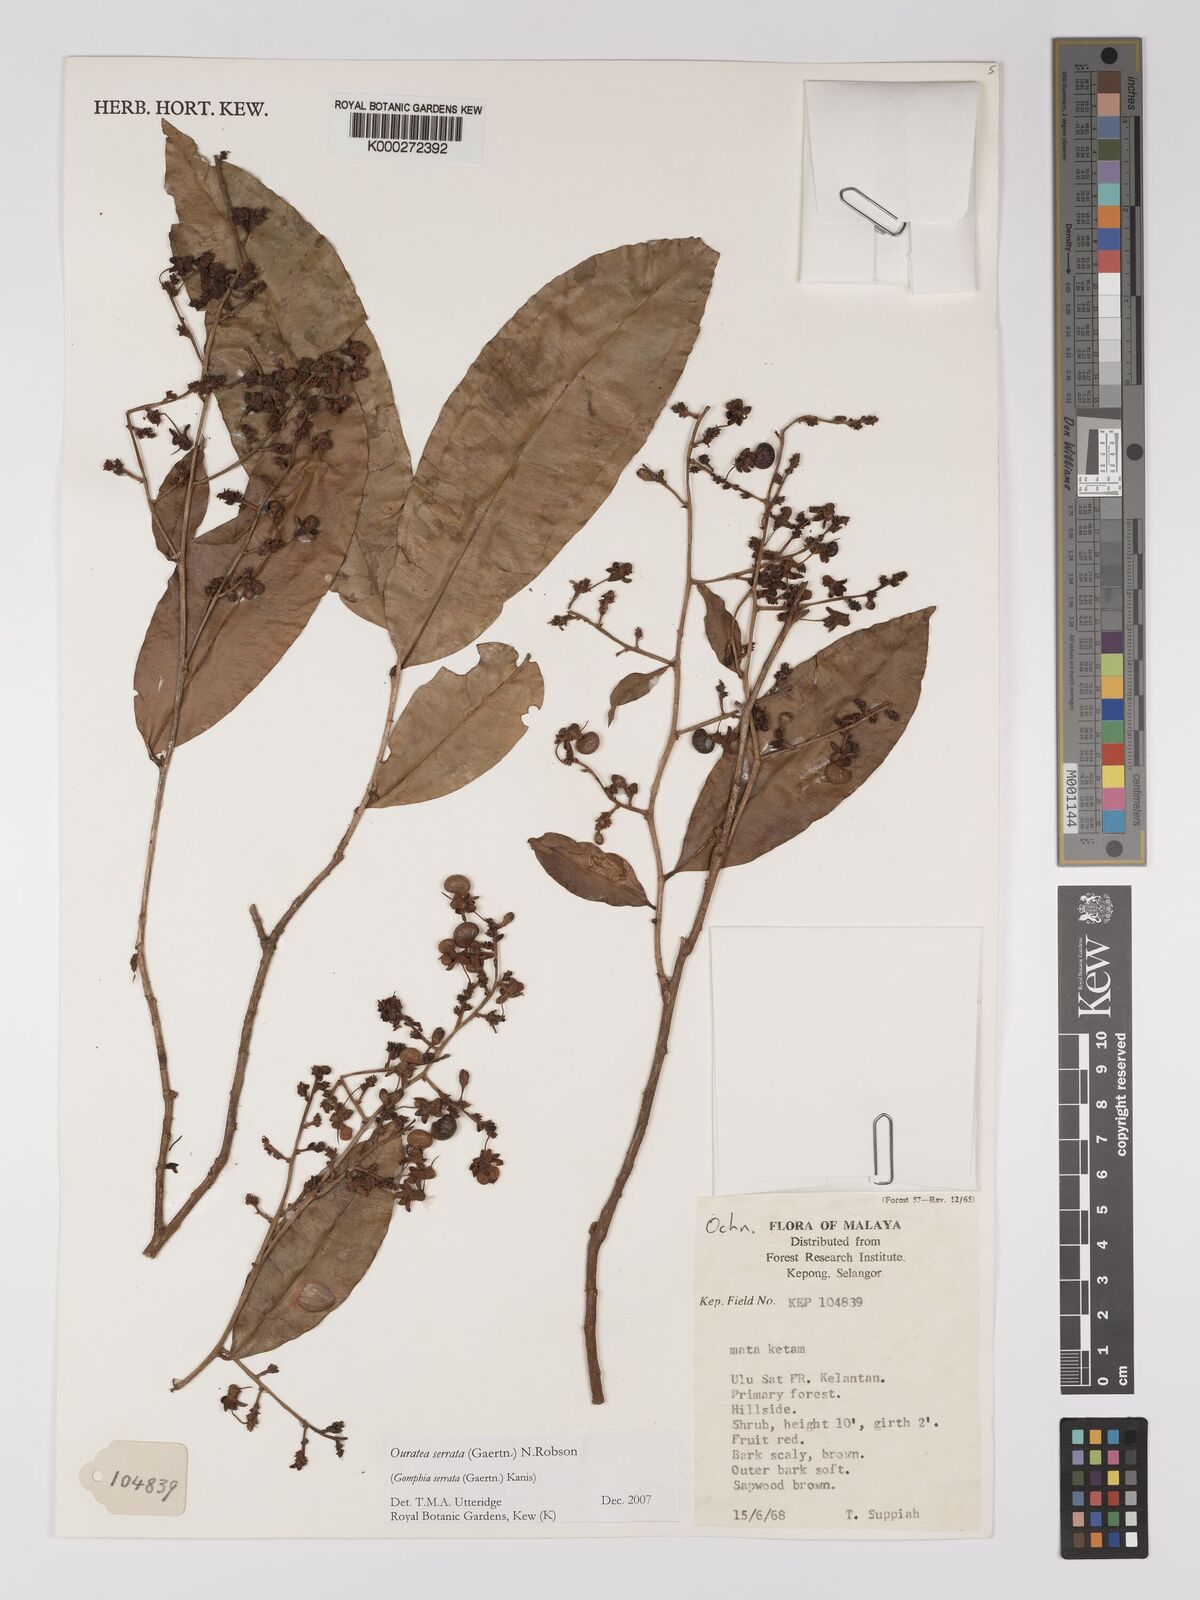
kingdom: Plantae
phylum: Tracheophyta
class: Magnoliopsida
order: Malpighiales
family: Ochnaceae
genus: Gomphia
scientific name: Gomphia serrata
